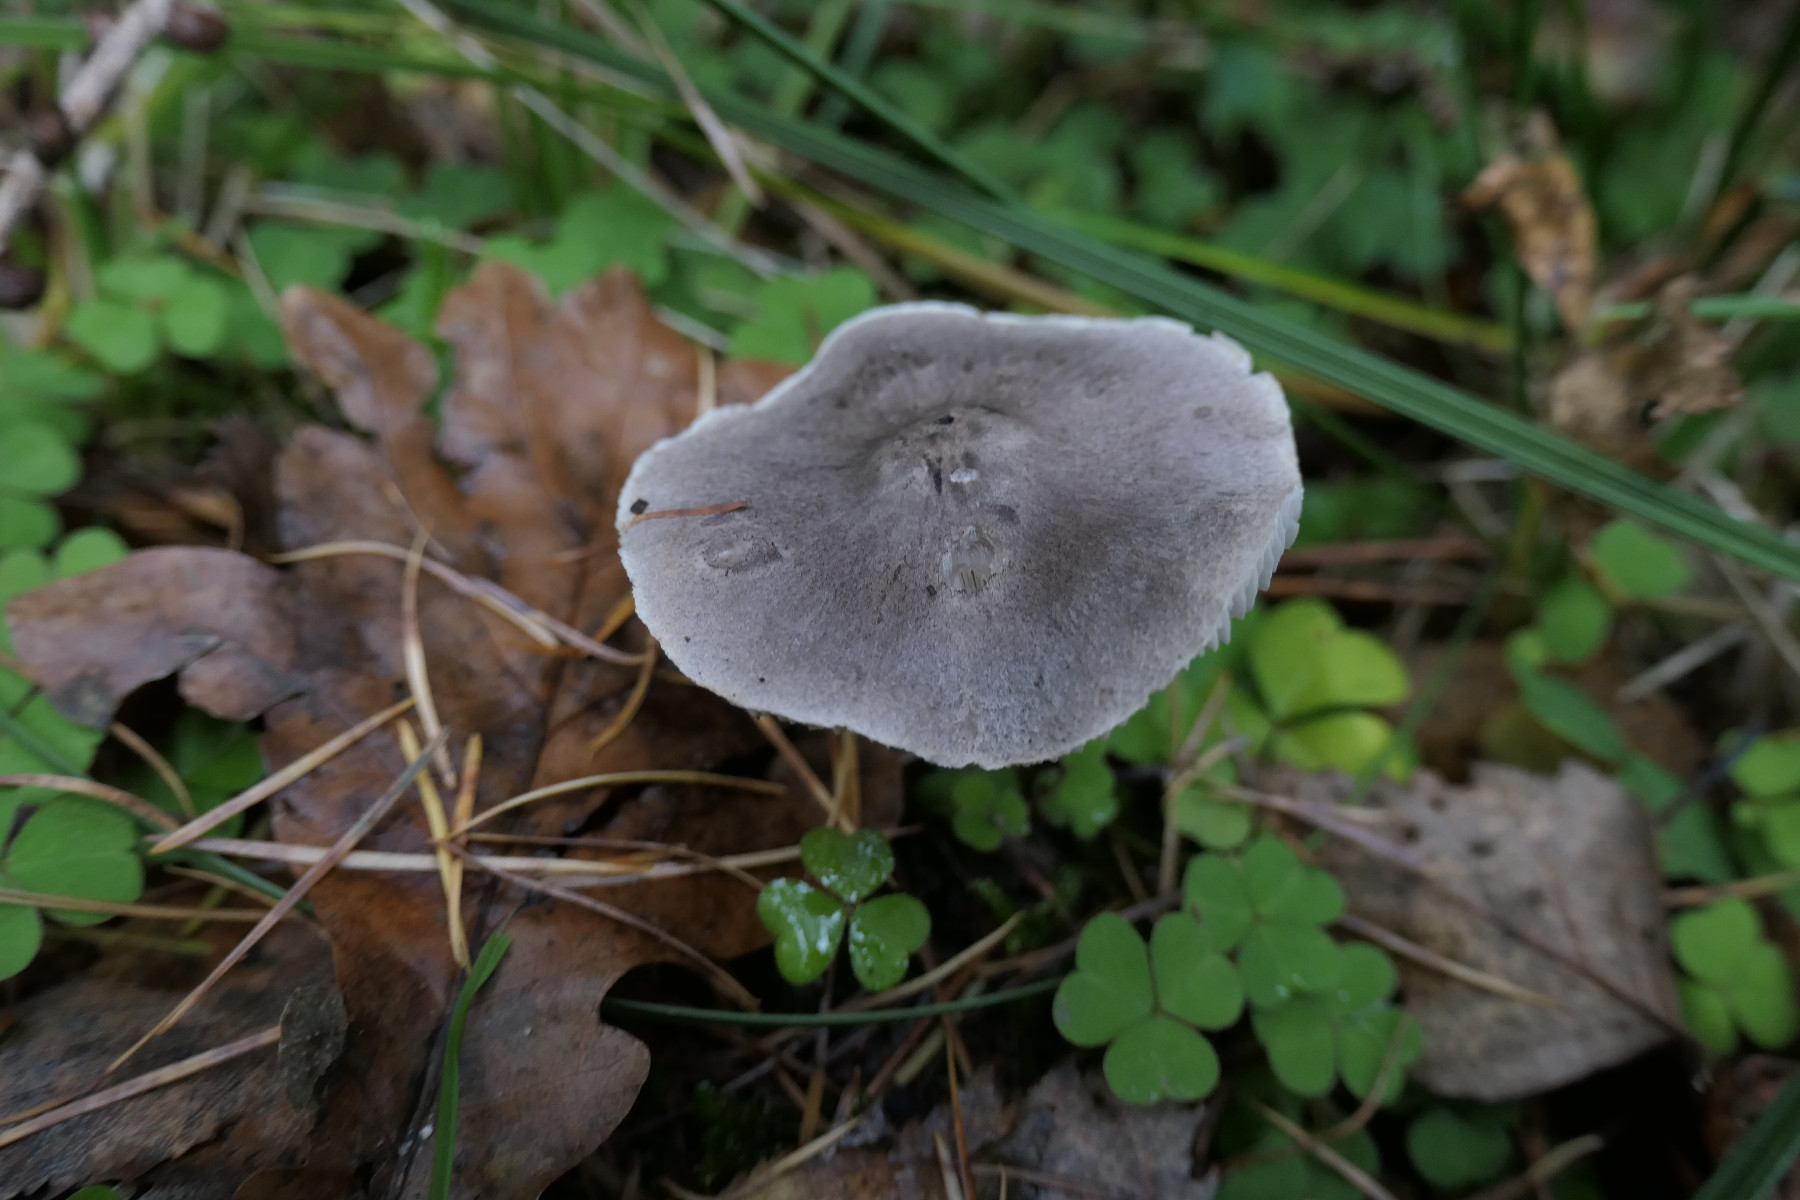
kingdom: Fungi
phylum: Basidiomycota
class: Agaricomycetes
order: Agaricales
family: Tricholomataceae
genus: Tricholoma
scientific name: Tricholoma terreum
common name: jordfarvet ridderhat
